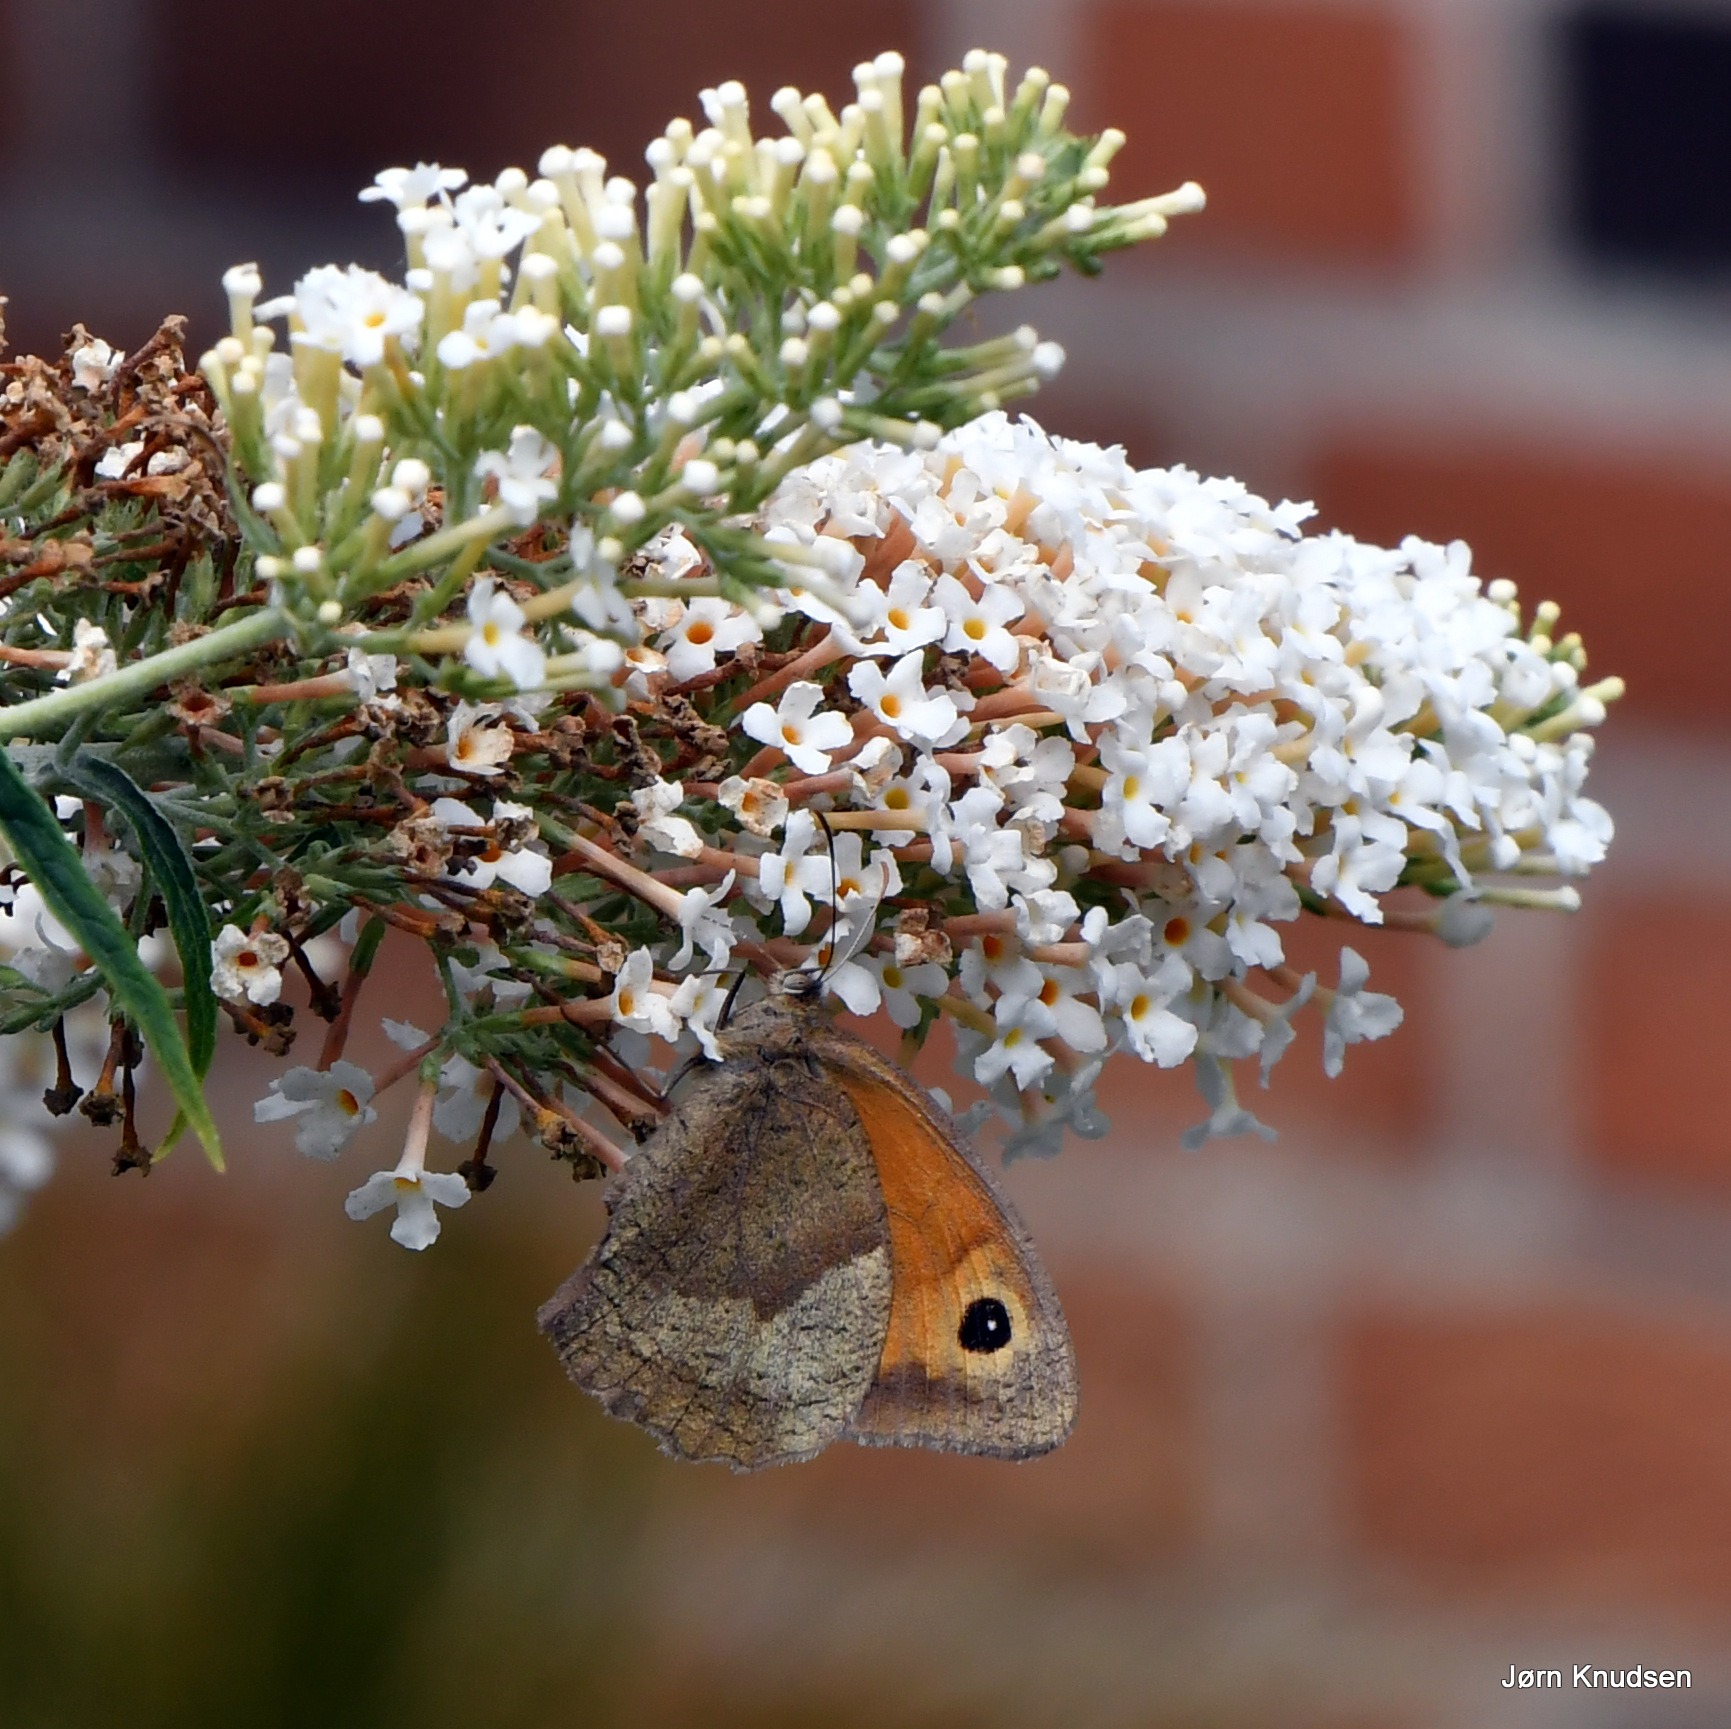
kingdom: Animalia
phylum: Arthropoda
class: Insecta
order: Lepidoptera
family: Nymphalidae
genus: Maniola
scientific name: Maniola jurtina
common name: Græsrandøje
